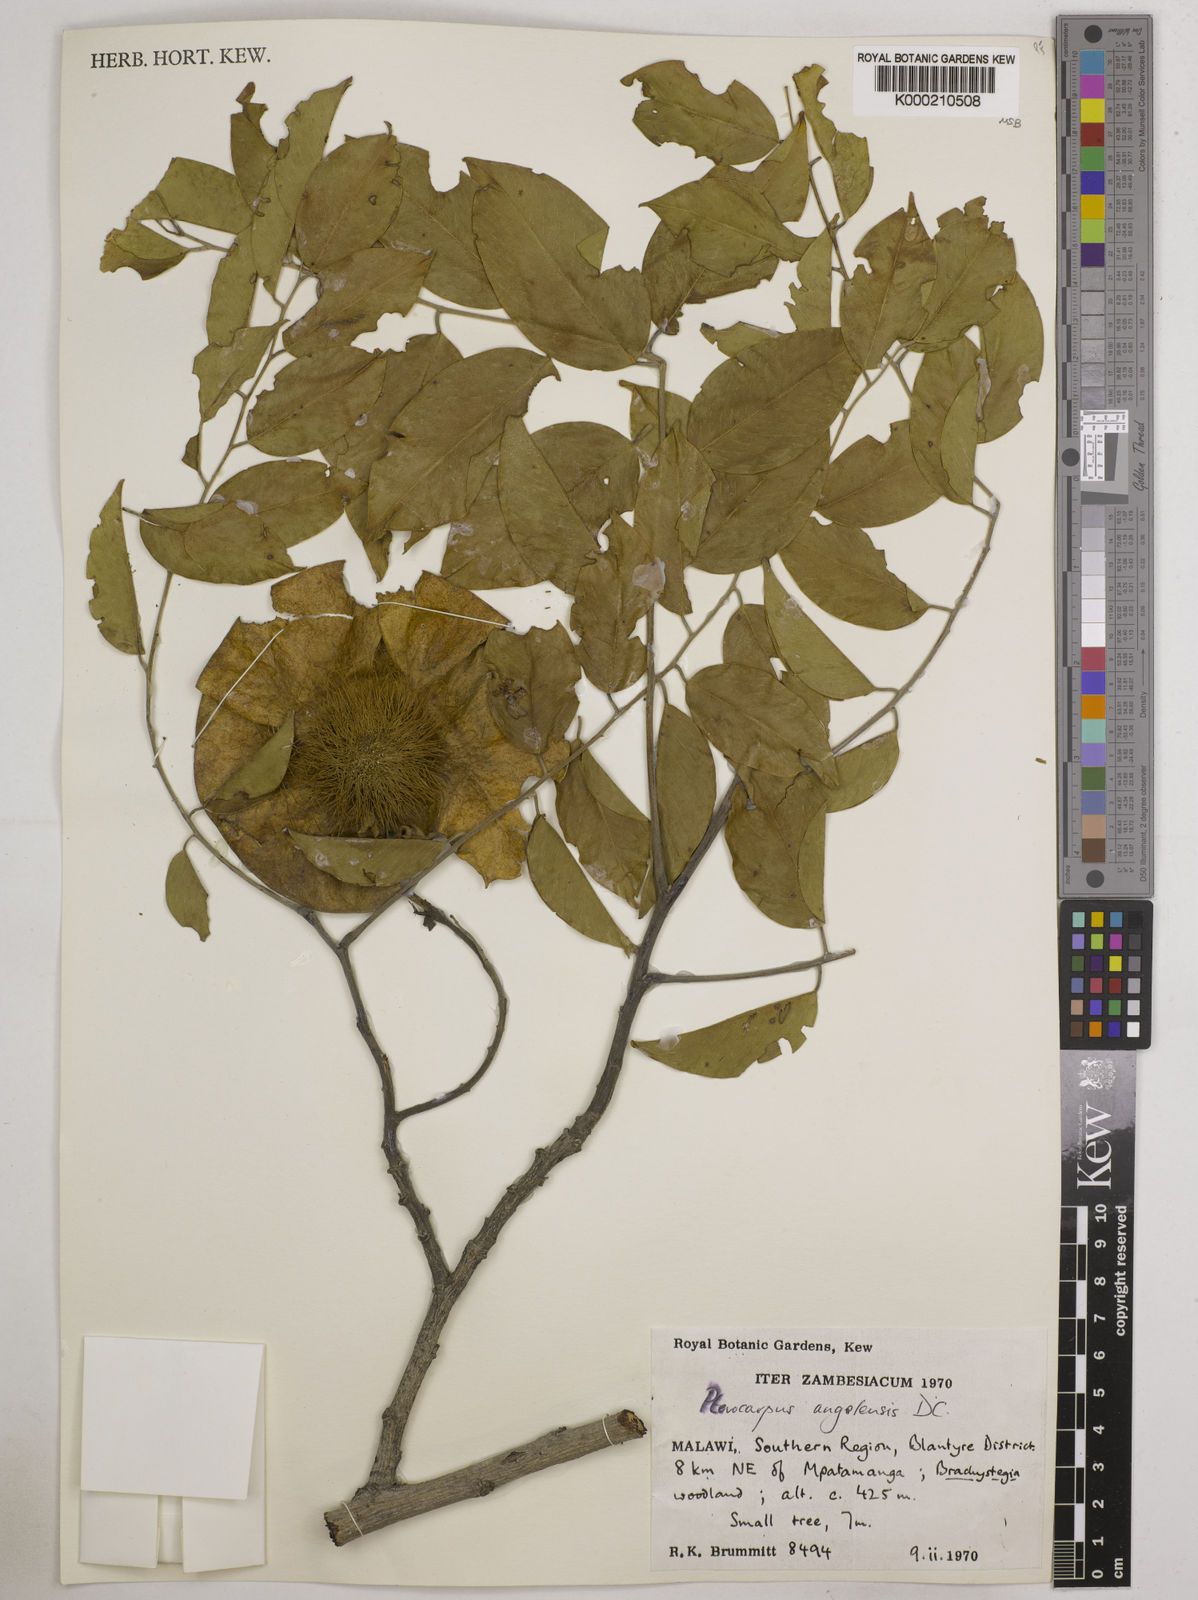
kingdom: Plantae
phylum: Tracheophyta
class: Magnoliopsida
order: Fabales
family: Fabaceae
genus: Pterocarpus
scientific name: Pterocarpus angolensis
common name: Bloodwood tree
